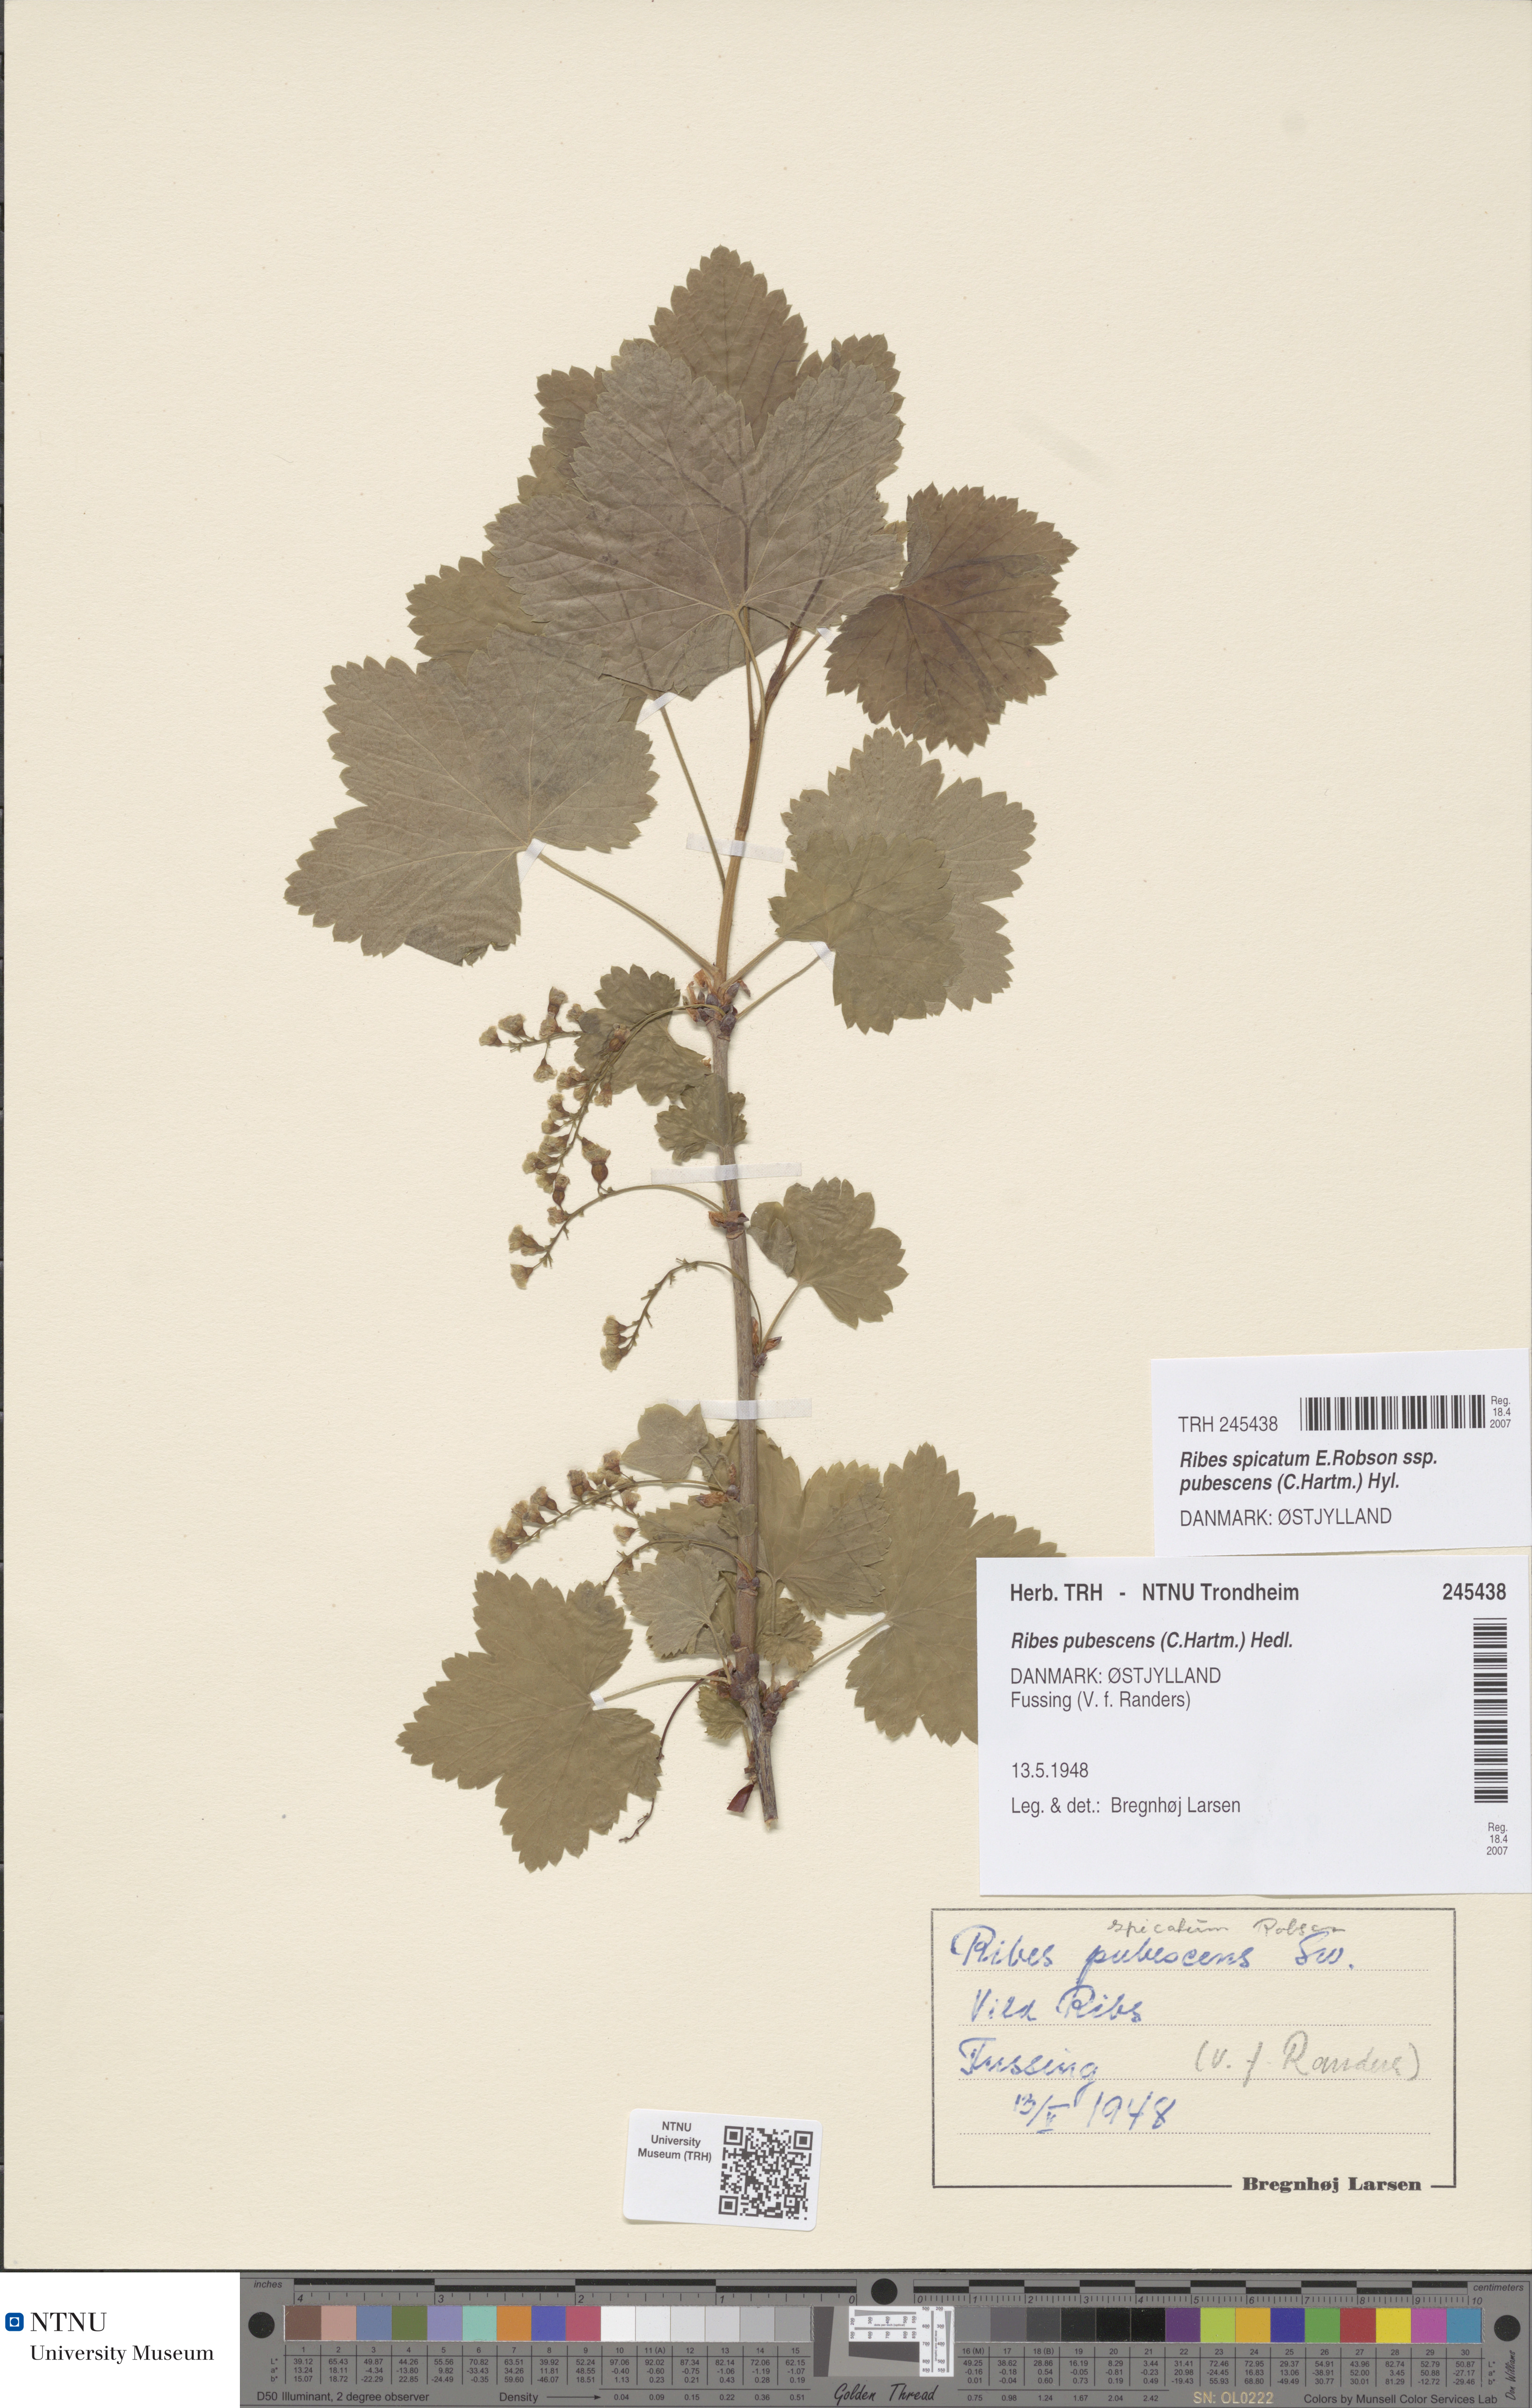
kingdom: Plantae
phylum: Tracheophyta
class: Magnoliopsida
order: Saxifragales
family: Grossulariaceae
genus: Ribes
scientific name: Ribes spicatum
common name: Downy currant
